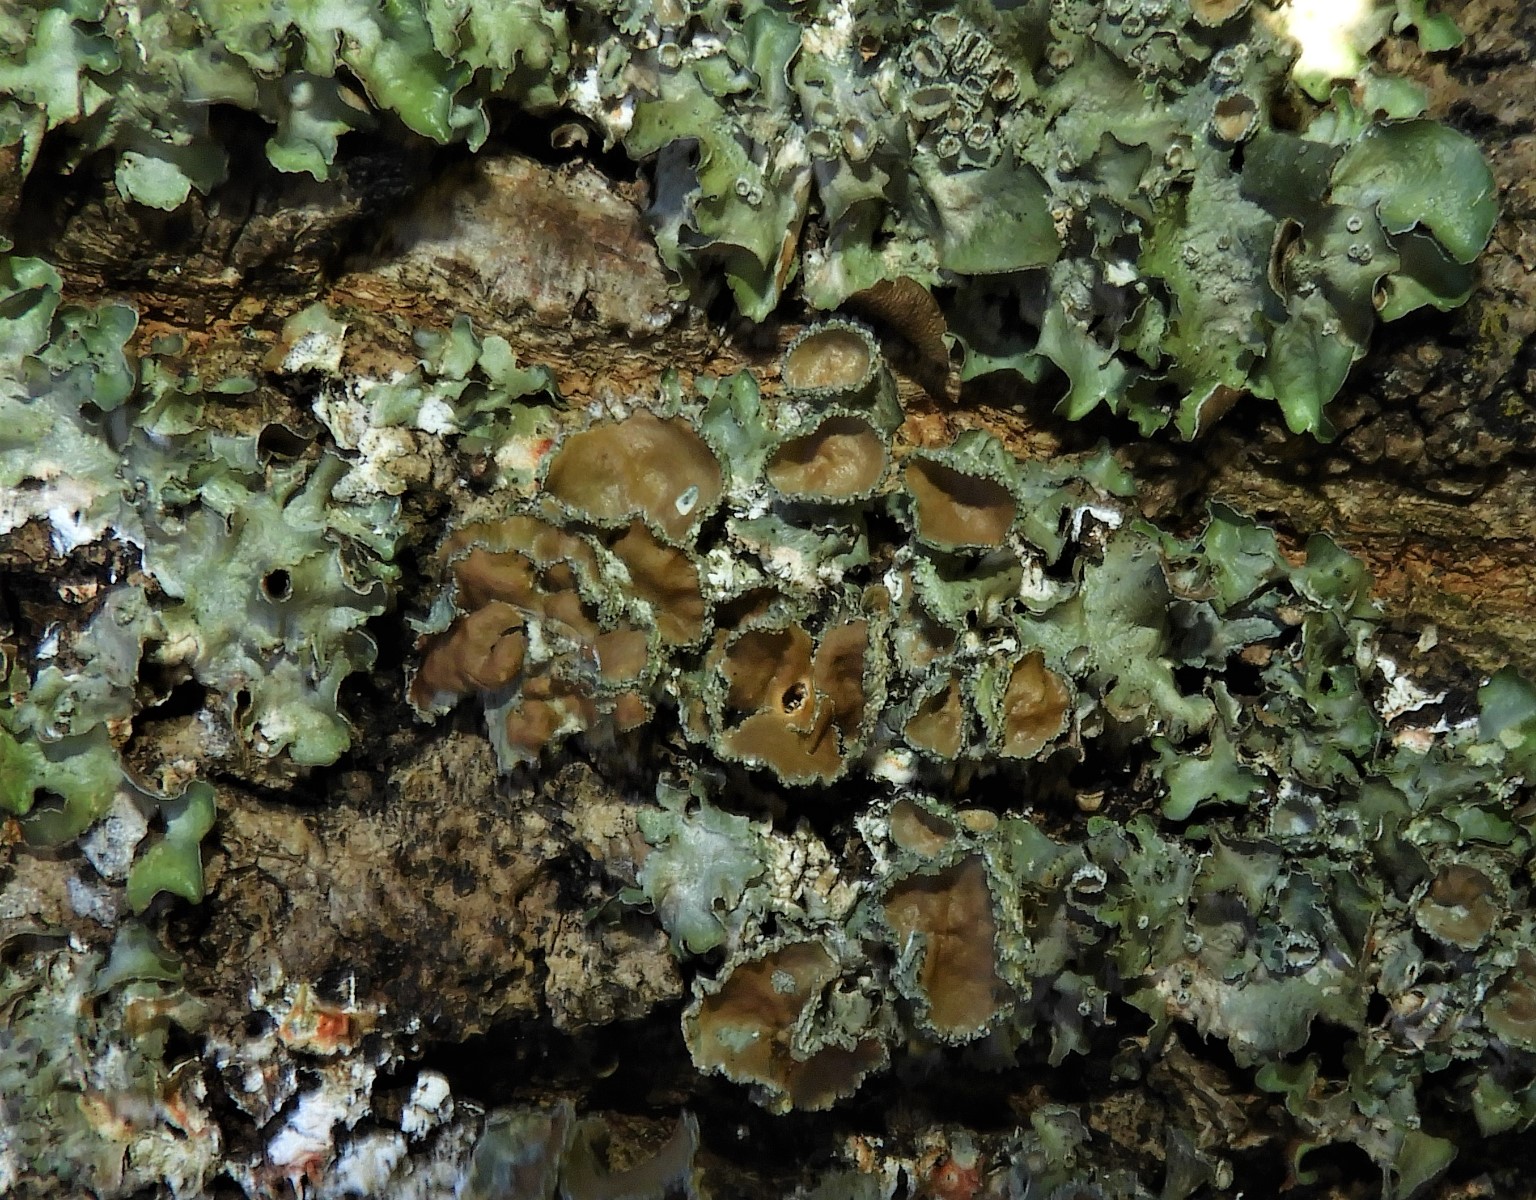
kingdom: Fungi
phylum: Ascomycota
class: Lecanoromycetes
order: Lecanorales
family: Parmeliaceae
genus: Pleurosticta
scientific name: Pleurosticta acetabulum
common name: stor skållav
